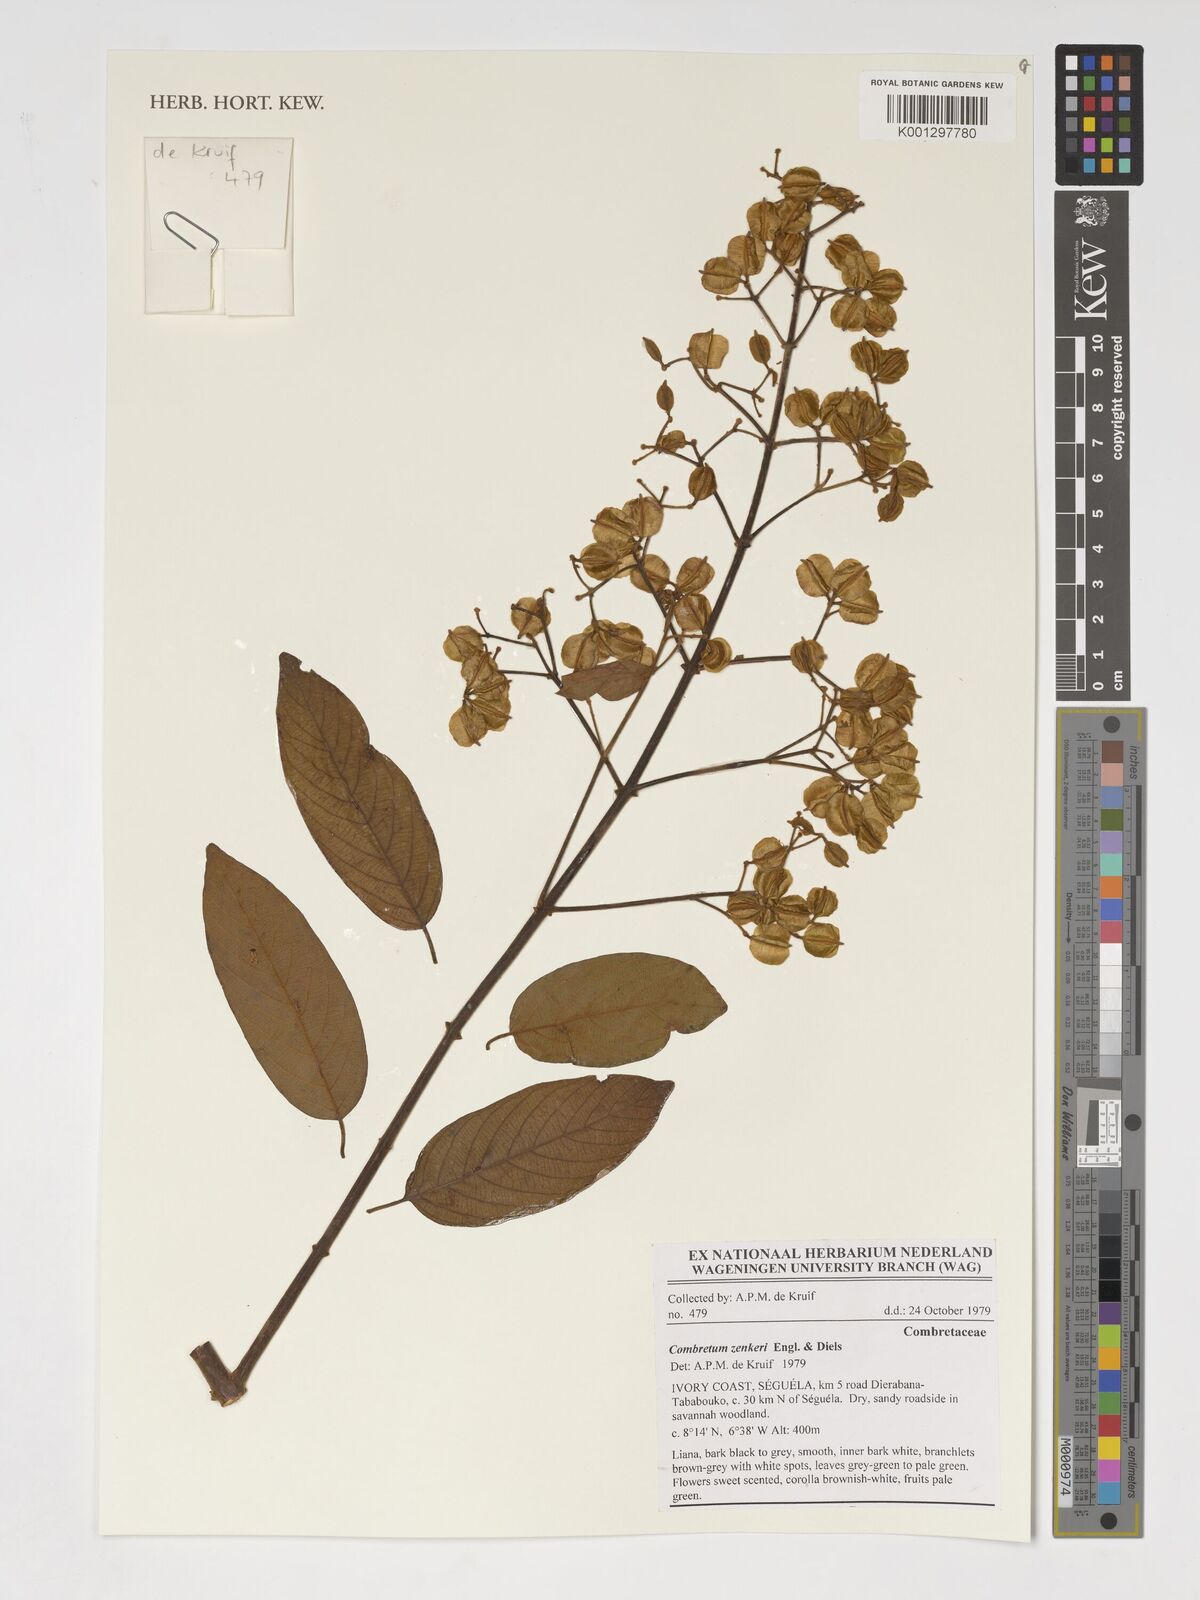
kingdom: Plantae
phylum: Tracheophyta
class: Magnoliopsida
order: Myrtales
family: Combretaceae
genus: Combretum
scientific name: Combretum zenkeri
